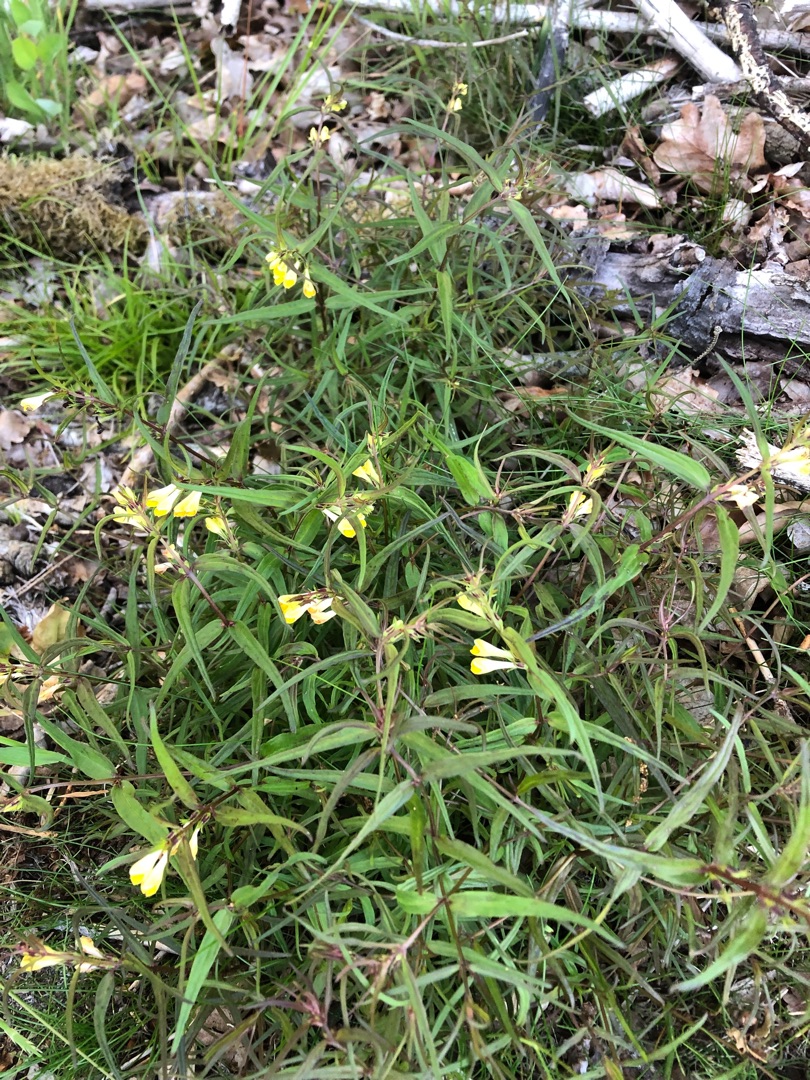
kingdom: Plantae
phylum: Tracheophyta
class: Magnoliopsida
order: Lamiales
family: Orobanchaceae
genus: Melampyrum
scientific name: Melampyrum pratense
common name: Almindelig kohvede
